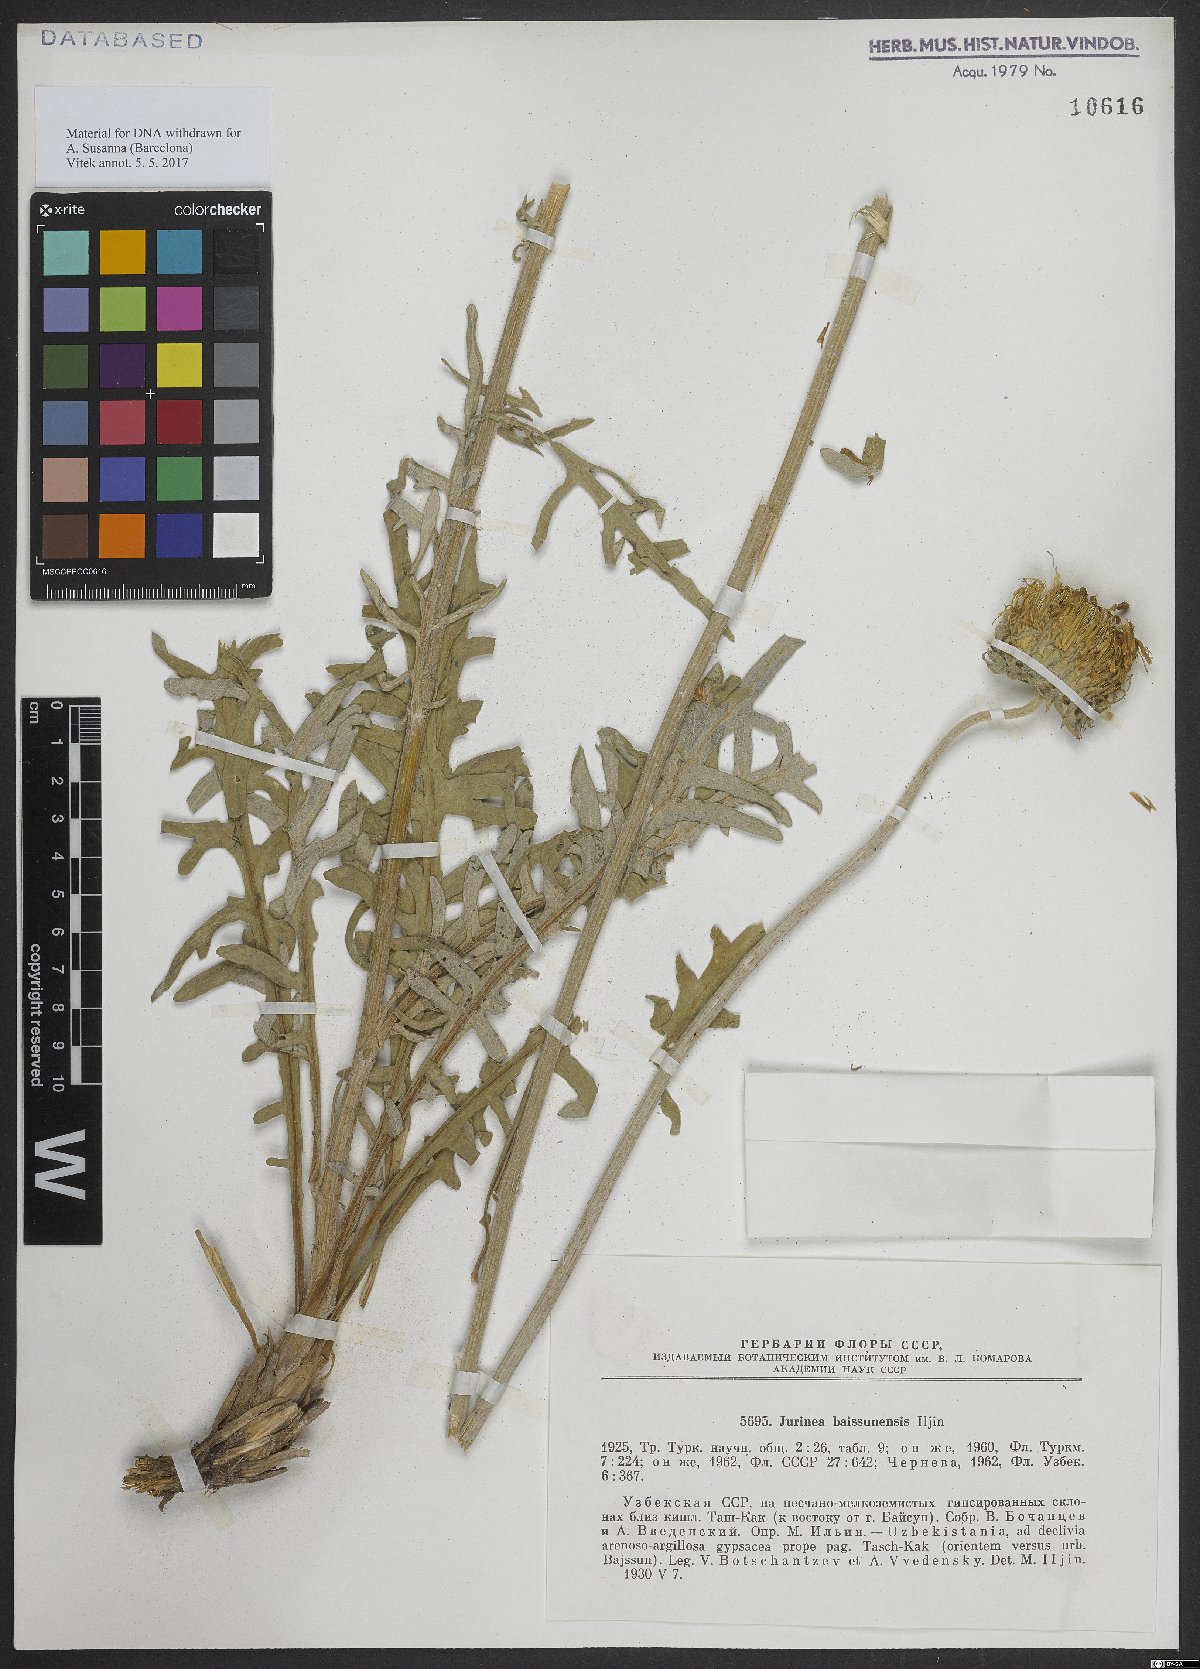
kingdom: Plantae
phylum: Tracheophyta
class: Magnoliopsida
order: Asterales
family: Asteraceae
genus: Jurinea
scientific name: Jurinea baissunensis
